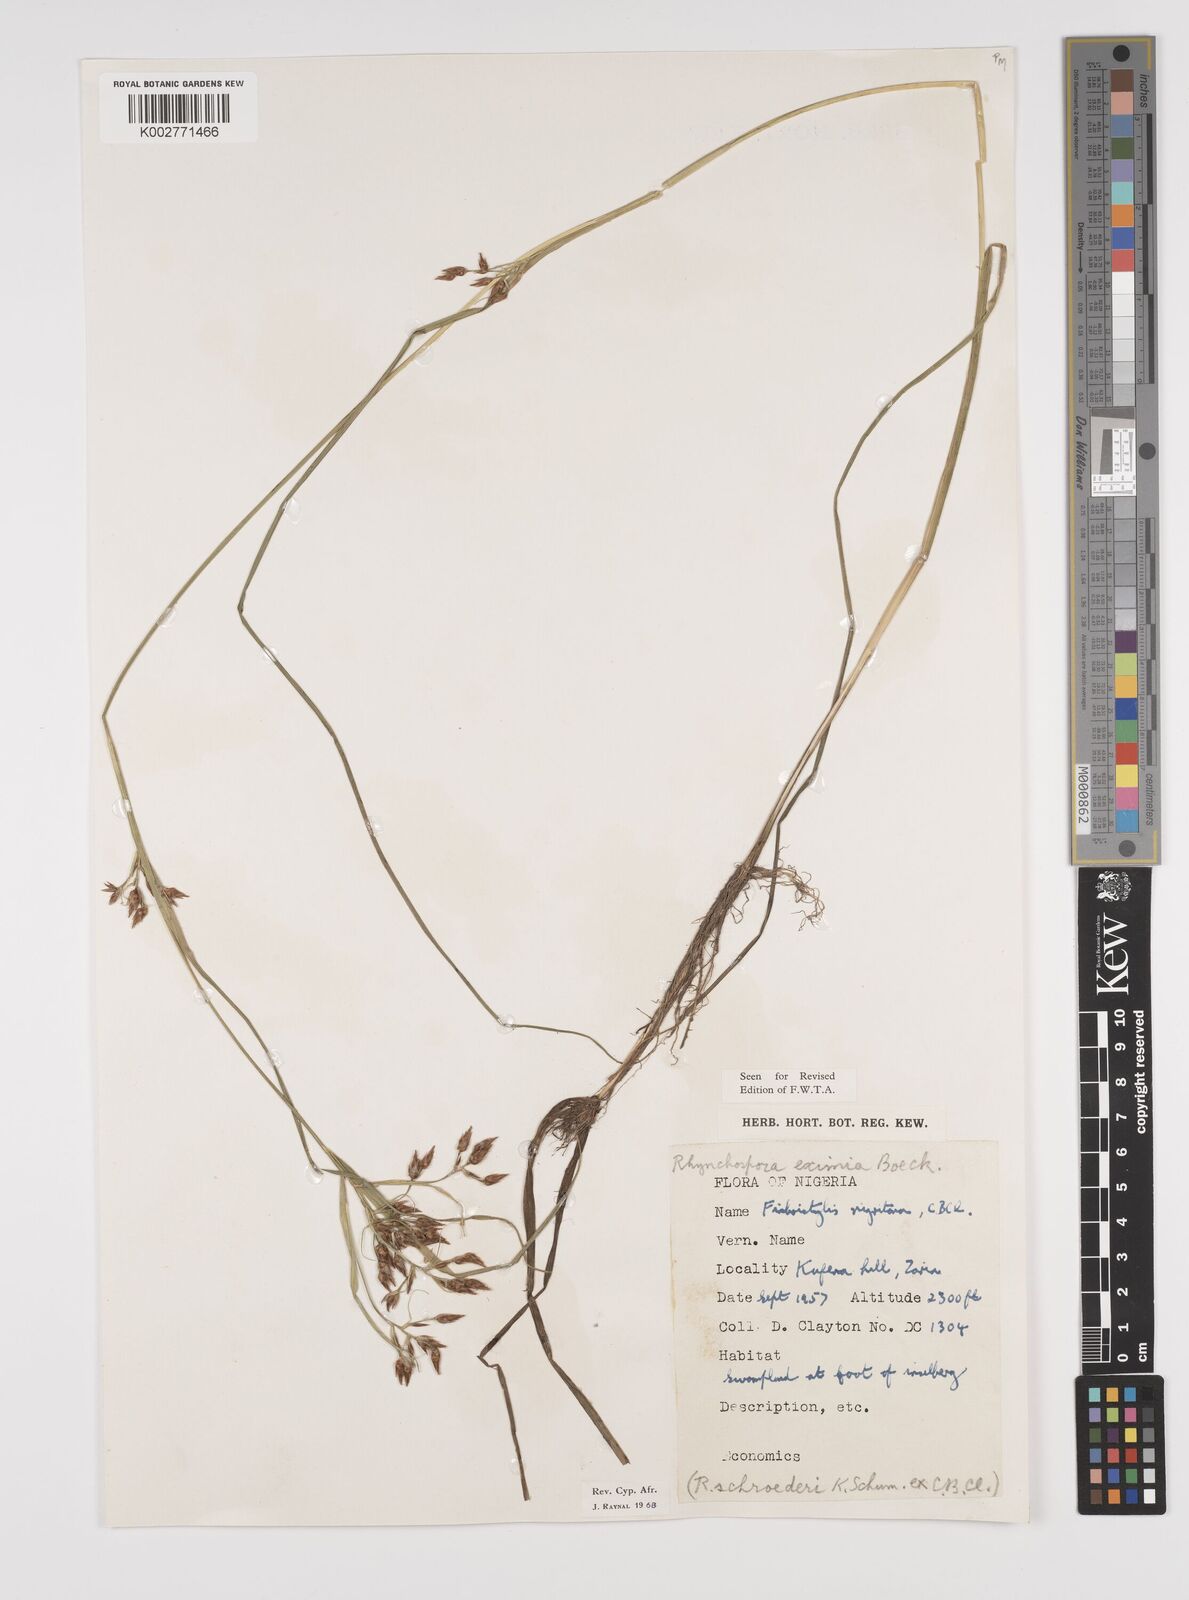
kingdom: Plantae
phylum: Tracheophyta
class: Liliopsida
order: Poales
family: Cyperaceae
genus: Rhynchospora
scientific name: Rhynchospora eximia
